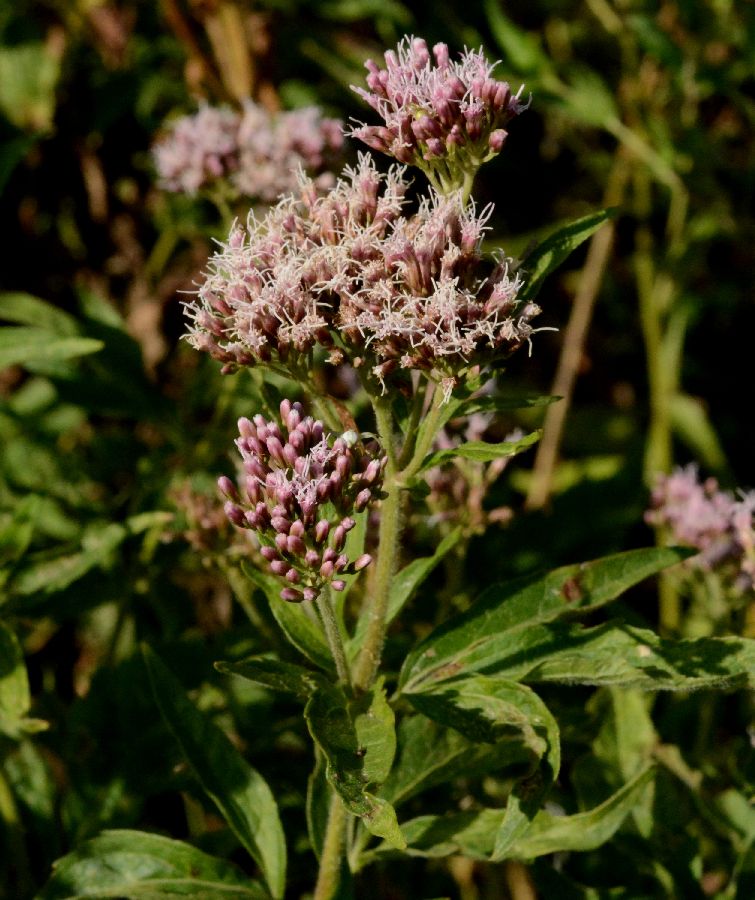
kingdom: Plantae
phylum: Tracheophyta
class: Magnoliopsida
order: Asterales
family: Asteraceae
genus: Eupatorium
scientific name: Eupatorium cannabinum
